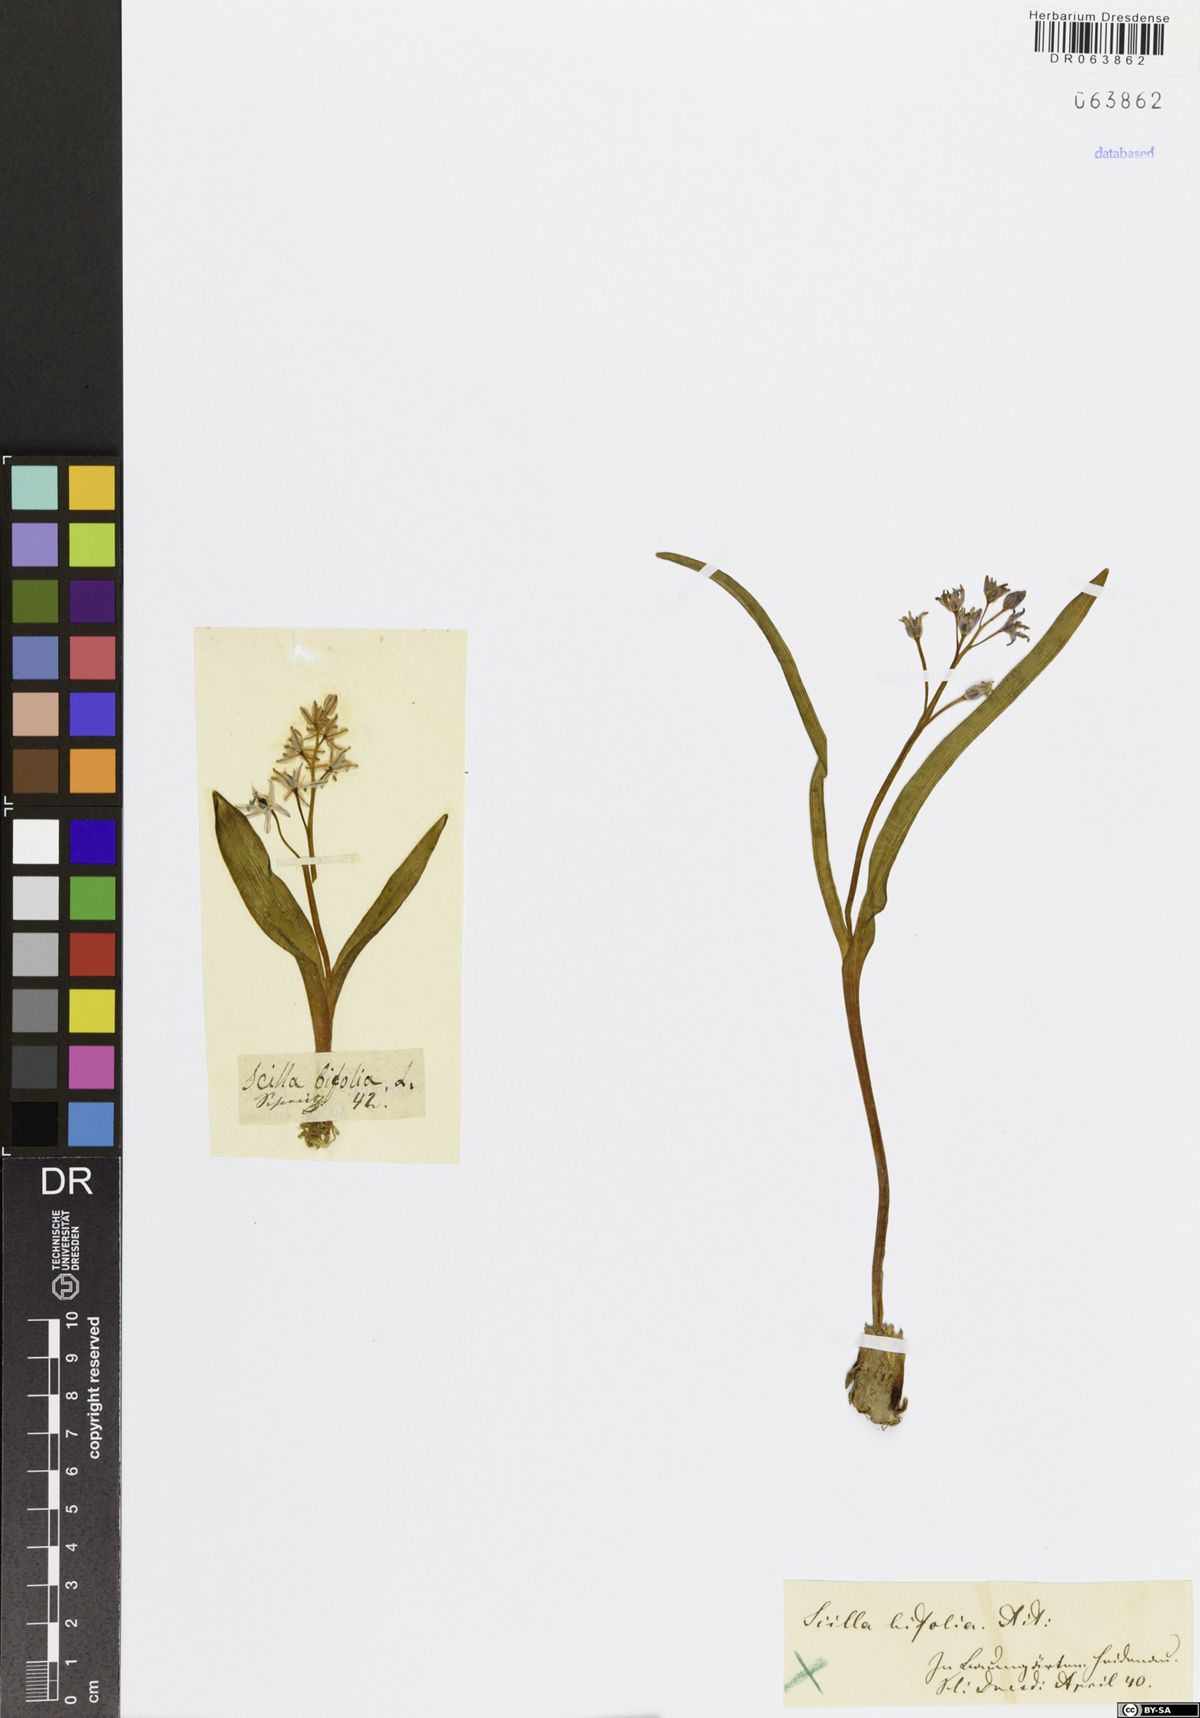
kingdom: Plantae
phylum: Tracheophyta
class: Liliopsida
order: Asparagales
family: Asparagaceae
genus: Scilla
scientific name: Scilla bifolia
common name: Alpine squill
